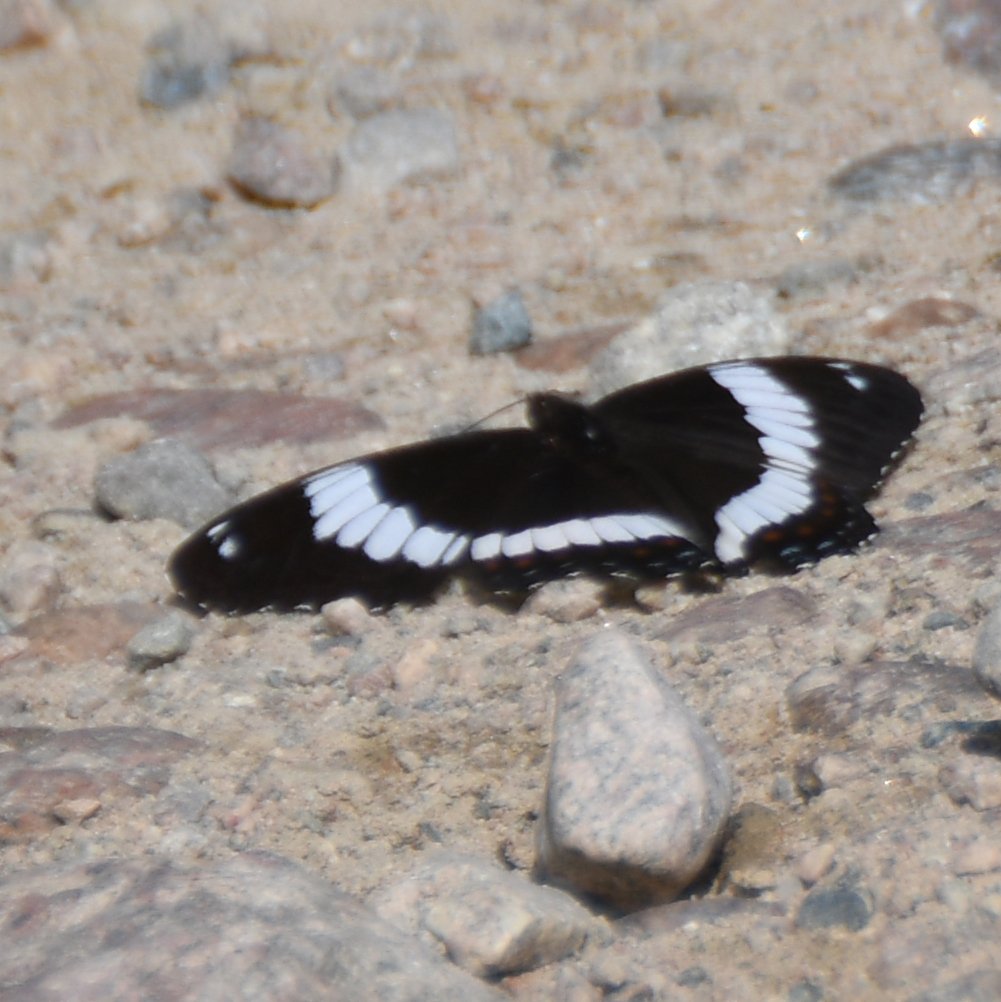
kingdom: Animalia
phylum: Arthropoda
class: Insecta
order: Lepidoptera
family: Nymphalidae
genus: Limenitis
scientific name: Limenitis arthemis
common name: Red-spotted Admiral
